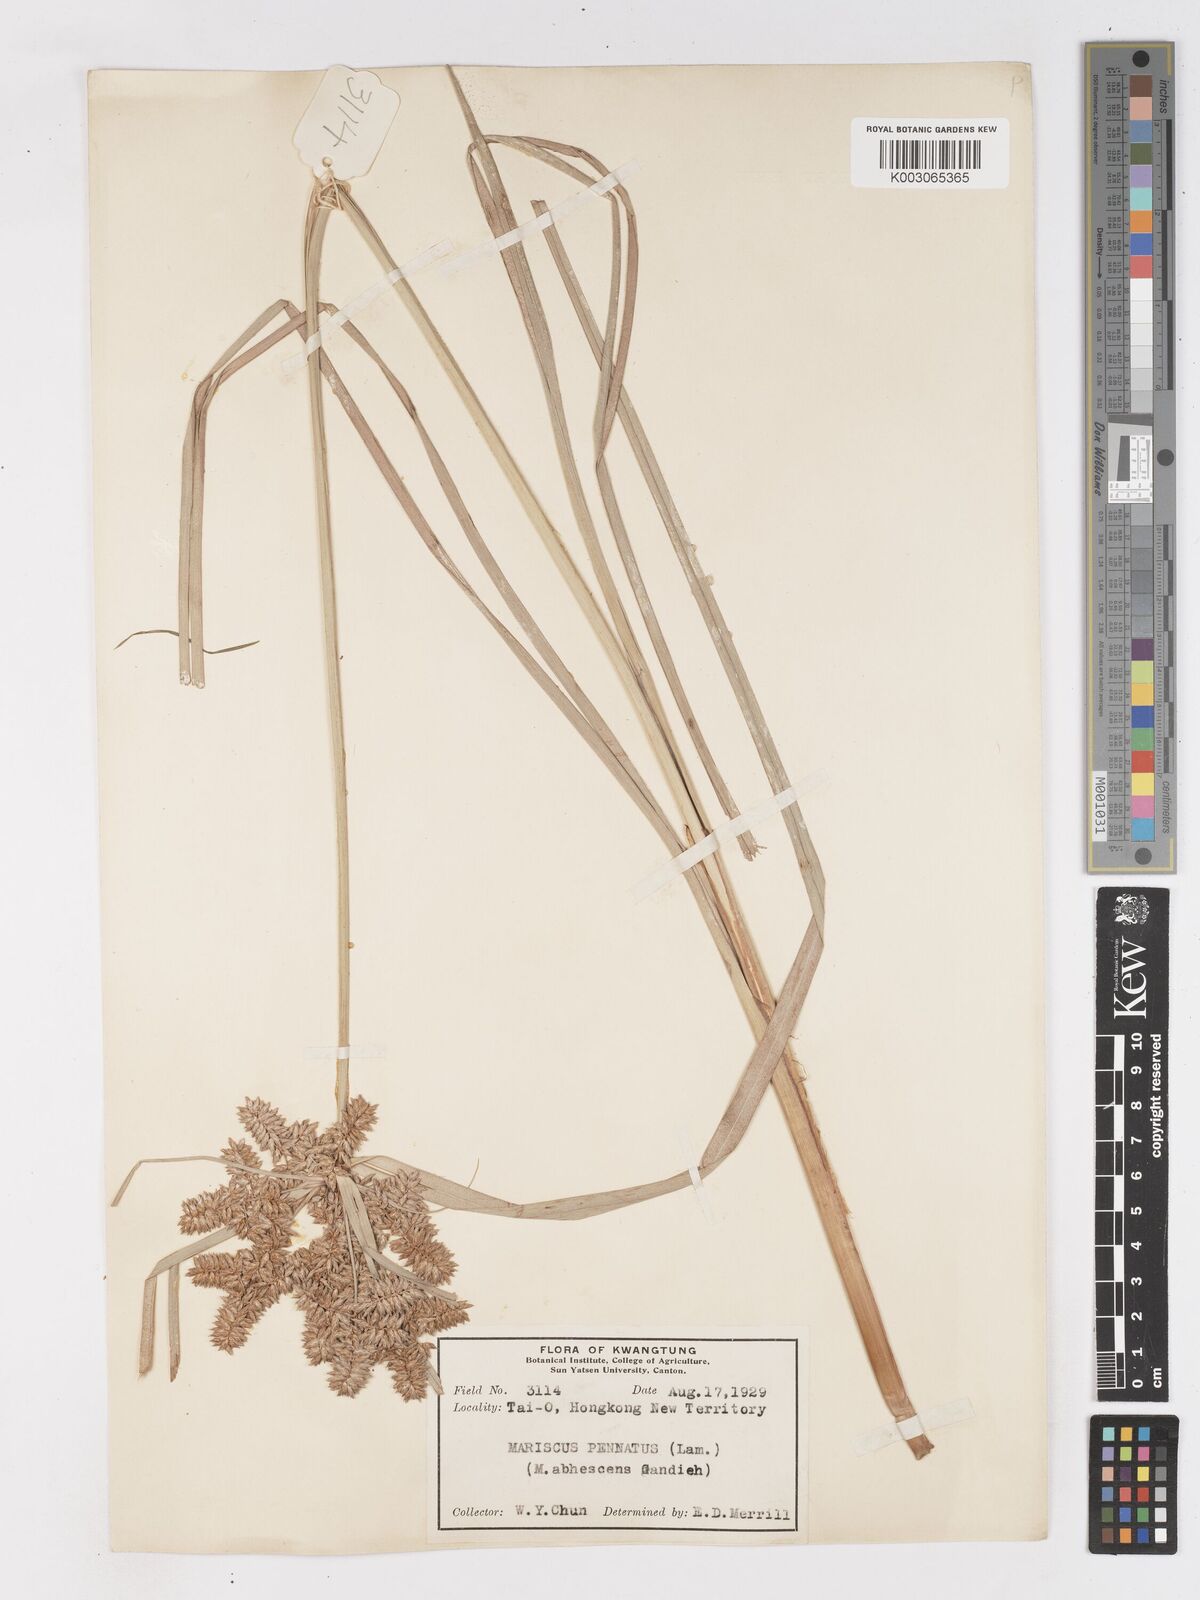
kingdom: Plantae
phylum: Tracheophyta
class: Liliopsida
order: Poales
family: Cyperaceae
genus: Cyperus
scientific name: Cyperus javanicus
